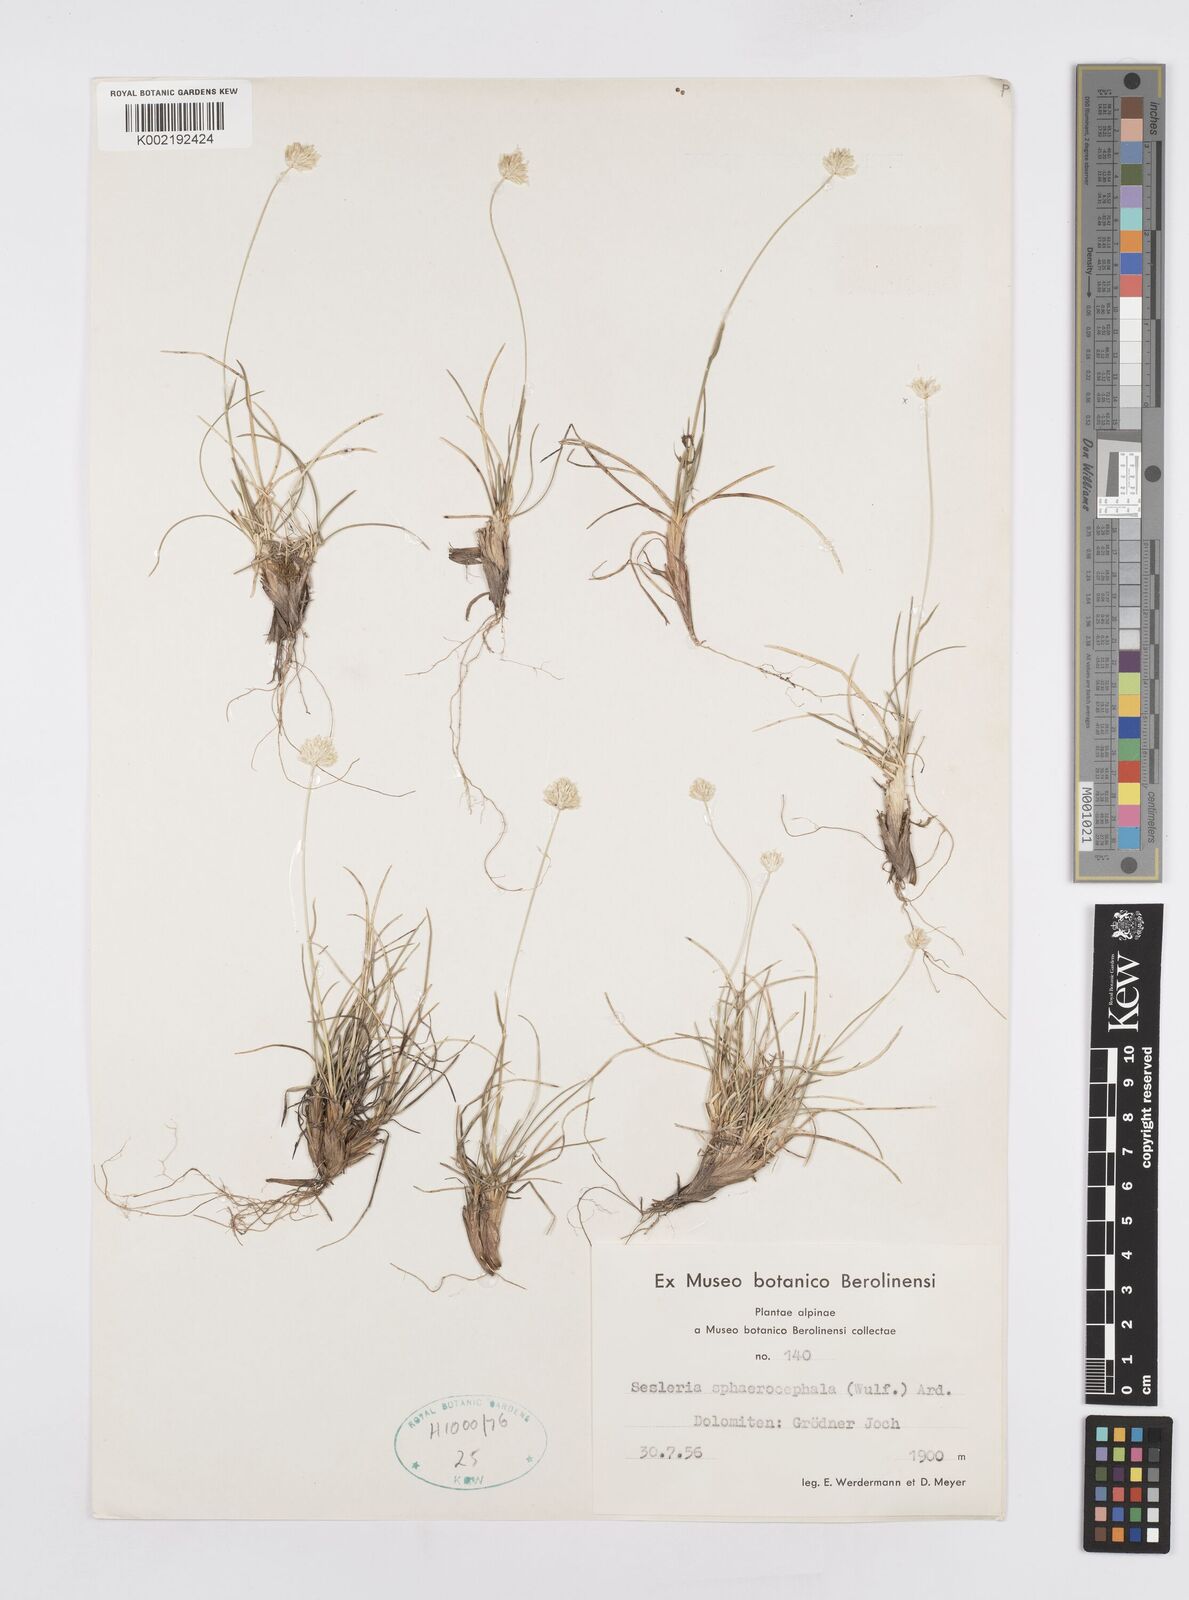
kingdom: Plantae
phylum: Tracheophyta
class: Liliopsida
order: Poales
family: Poaceae
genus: Sesleriella
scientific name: Sesleriella sphaerocephala
